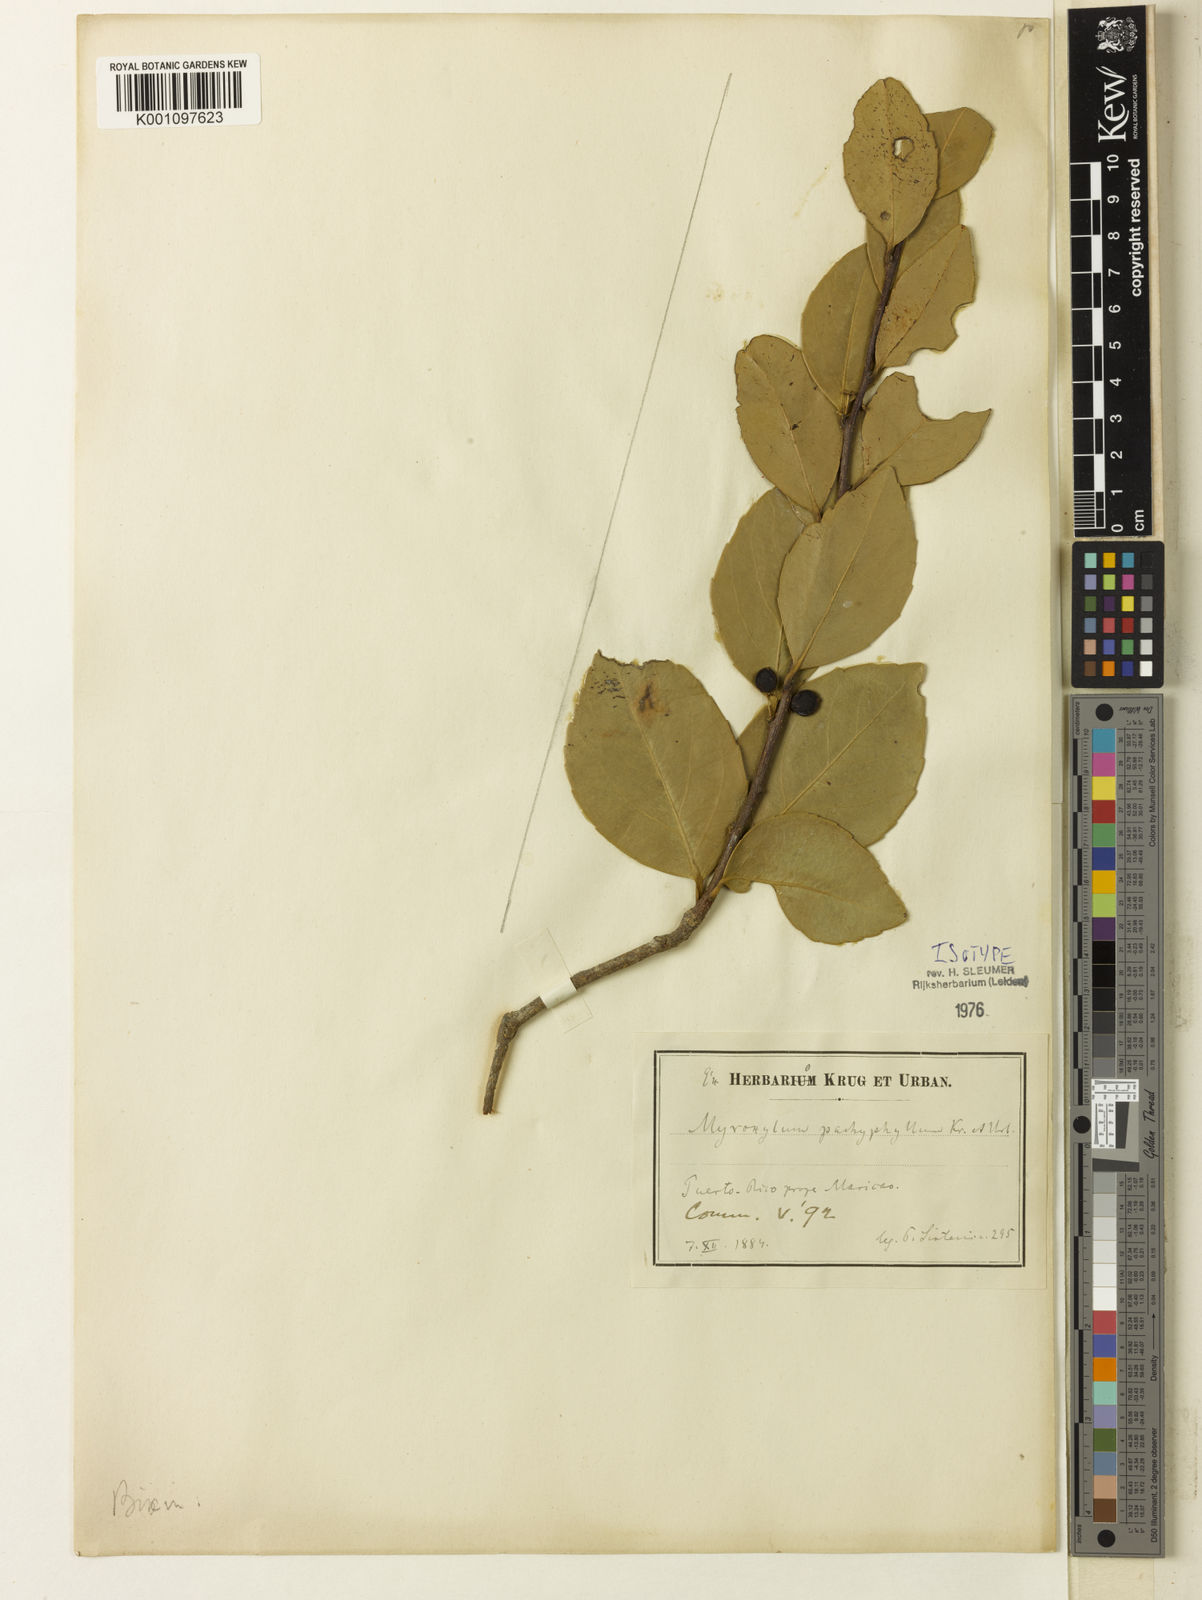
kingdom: Plantae
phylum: Tracheophyta
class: Magnoliopsida
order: Malpighiales
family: Salicaceae
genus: Xylosma
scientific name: Xylosma pachyphylla
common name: Spiny logwood
